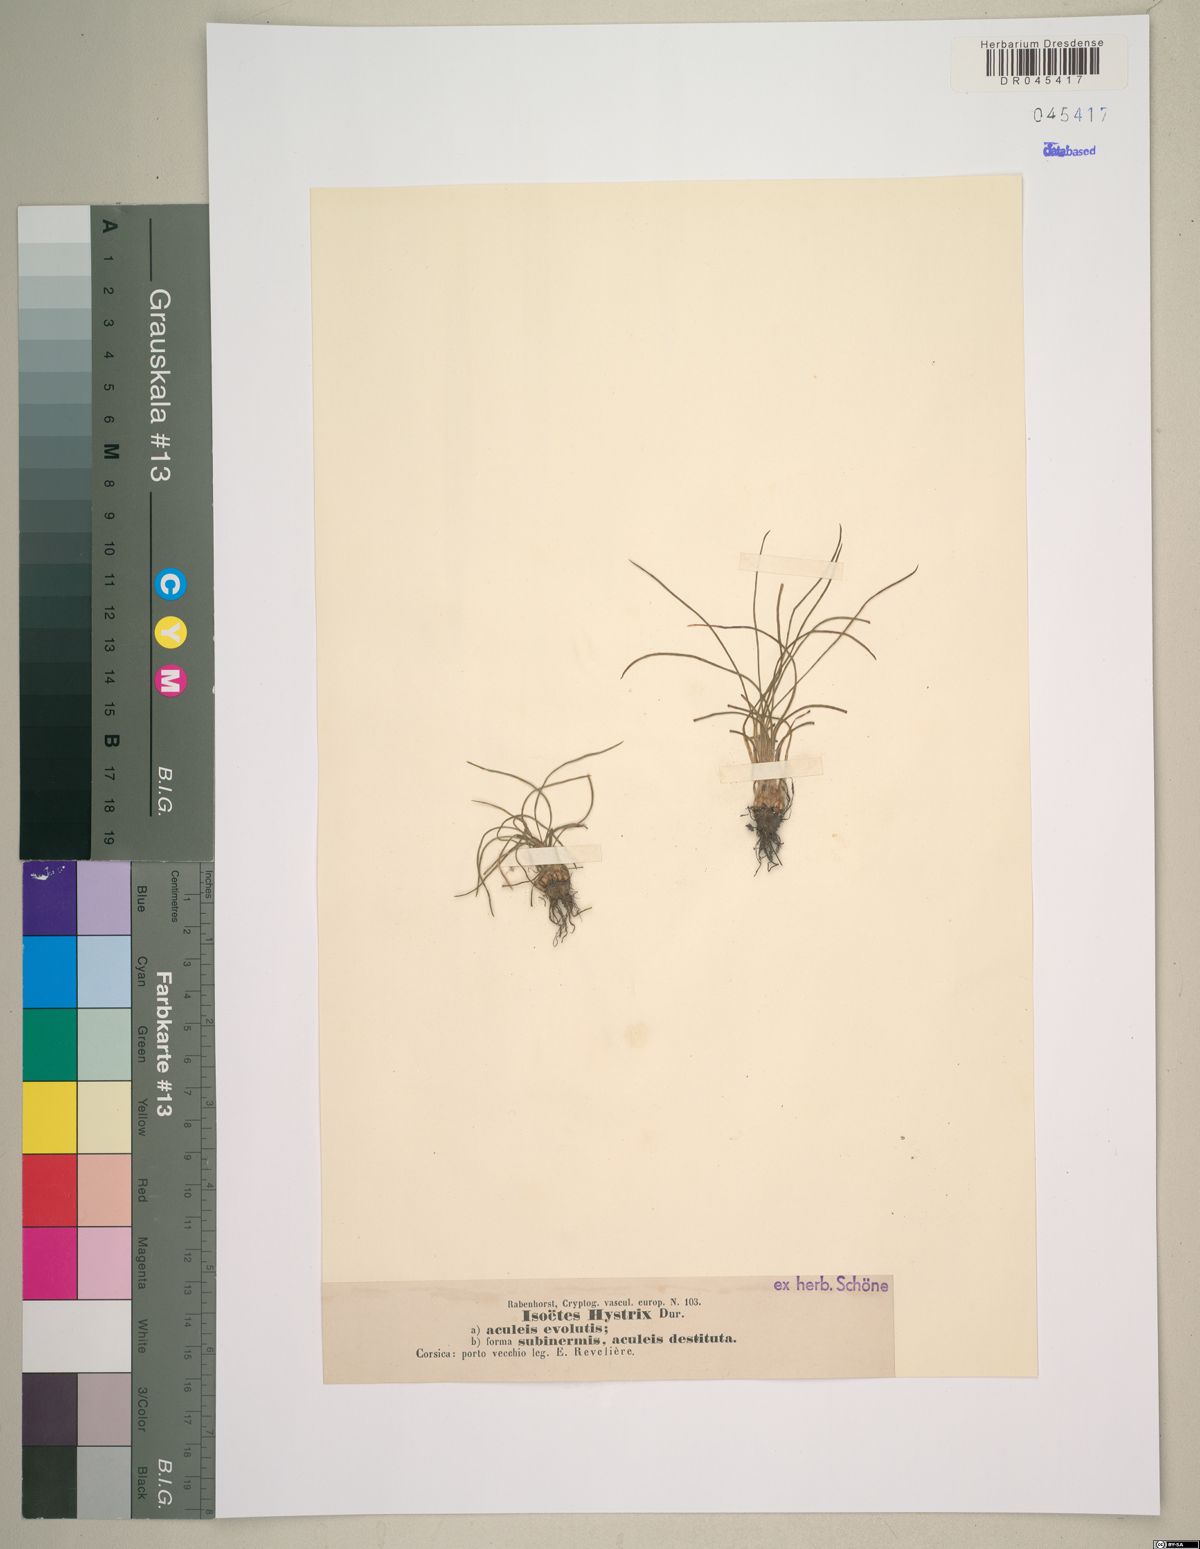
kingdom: Plantae
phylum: Tracheophyta
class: Lycopodiopsida
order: Isoetales
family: Isoetaceae
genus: Isoetes
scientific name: Isoetes histrix
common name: Land quillwort
